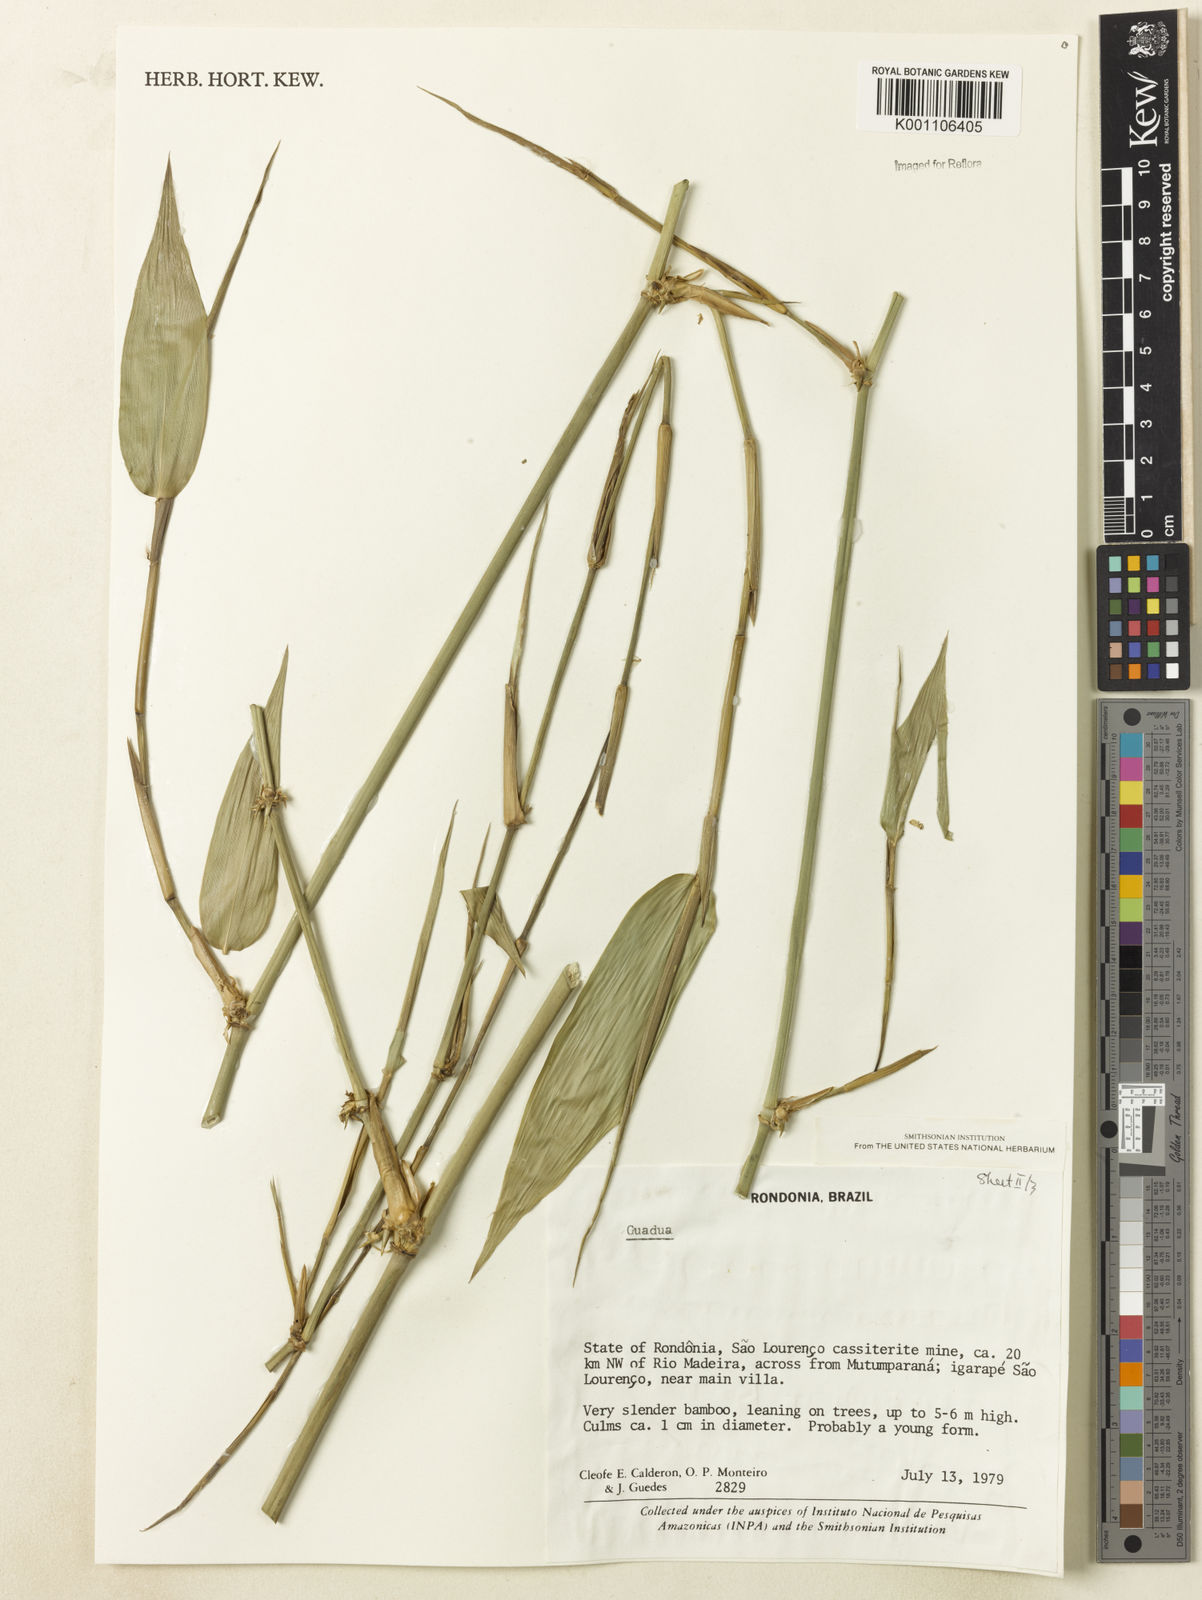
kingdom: Plantae
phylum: Tracheophyta
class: Liliopsida
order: Poales
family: Poaceae
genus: Guadua
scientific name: Guadua
